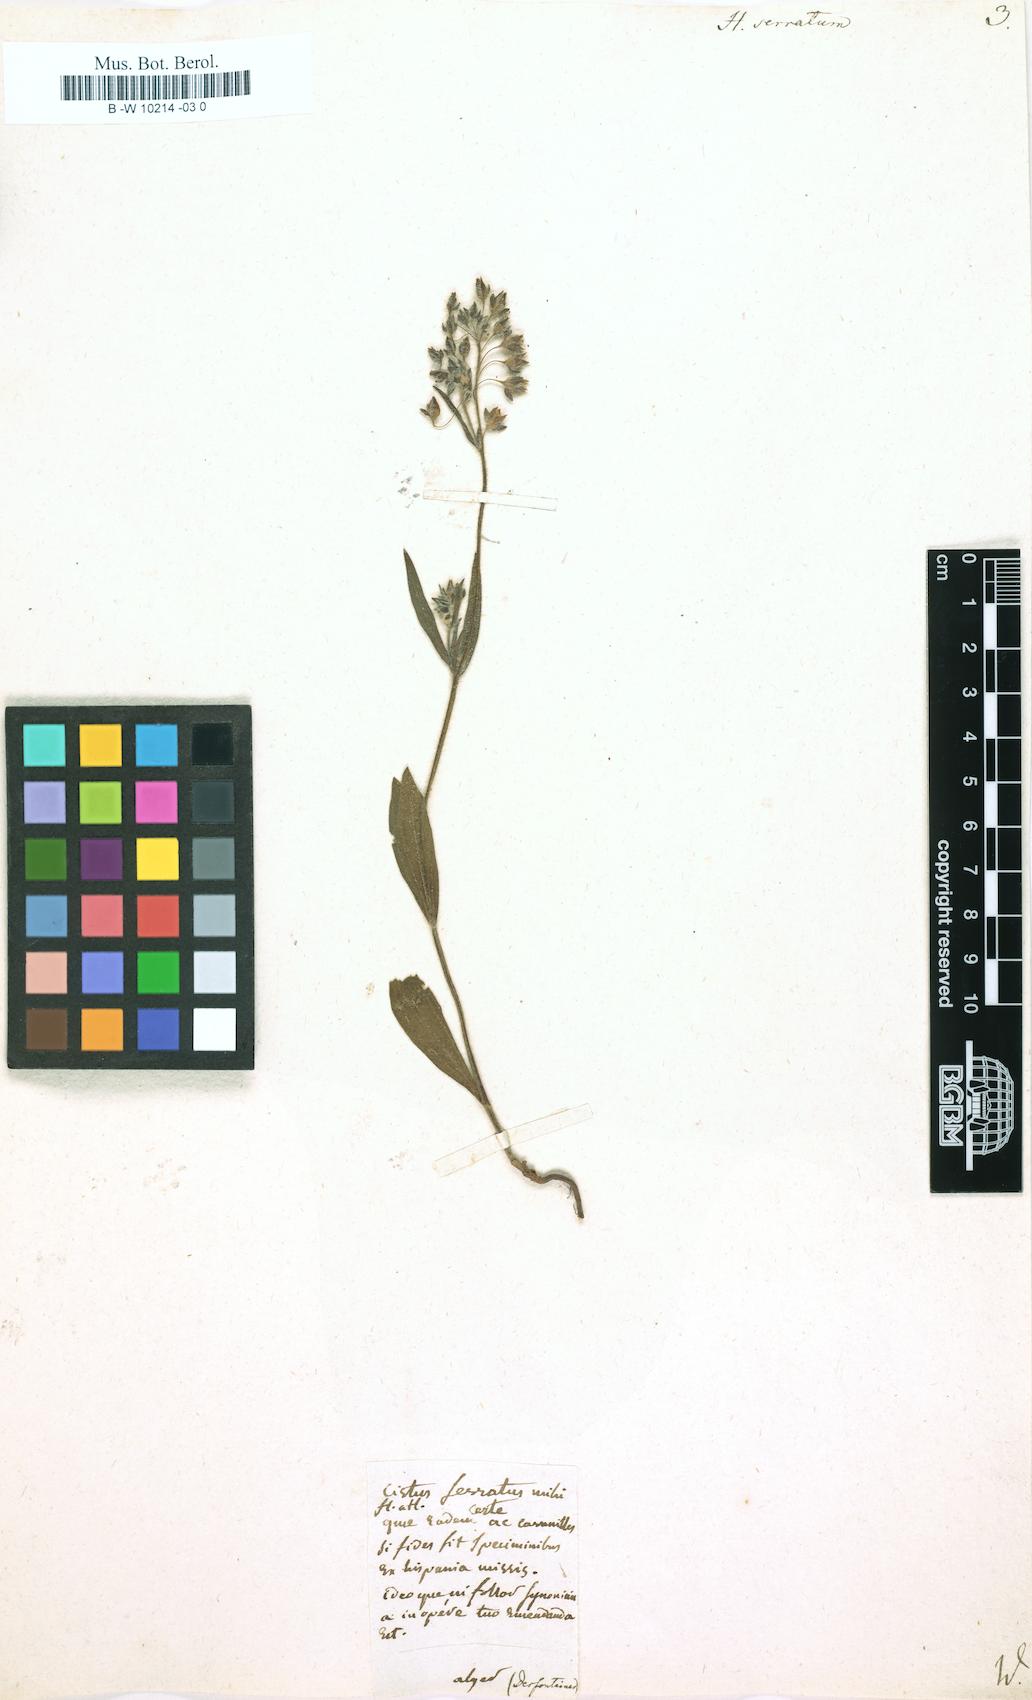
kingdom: Plantae
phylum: Tracheophyta
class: Magnoliopsida
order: Malvales
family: Cistaceae
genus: Tuberaria
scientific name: Tuberaria guttata
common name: Spotted rock-rose
